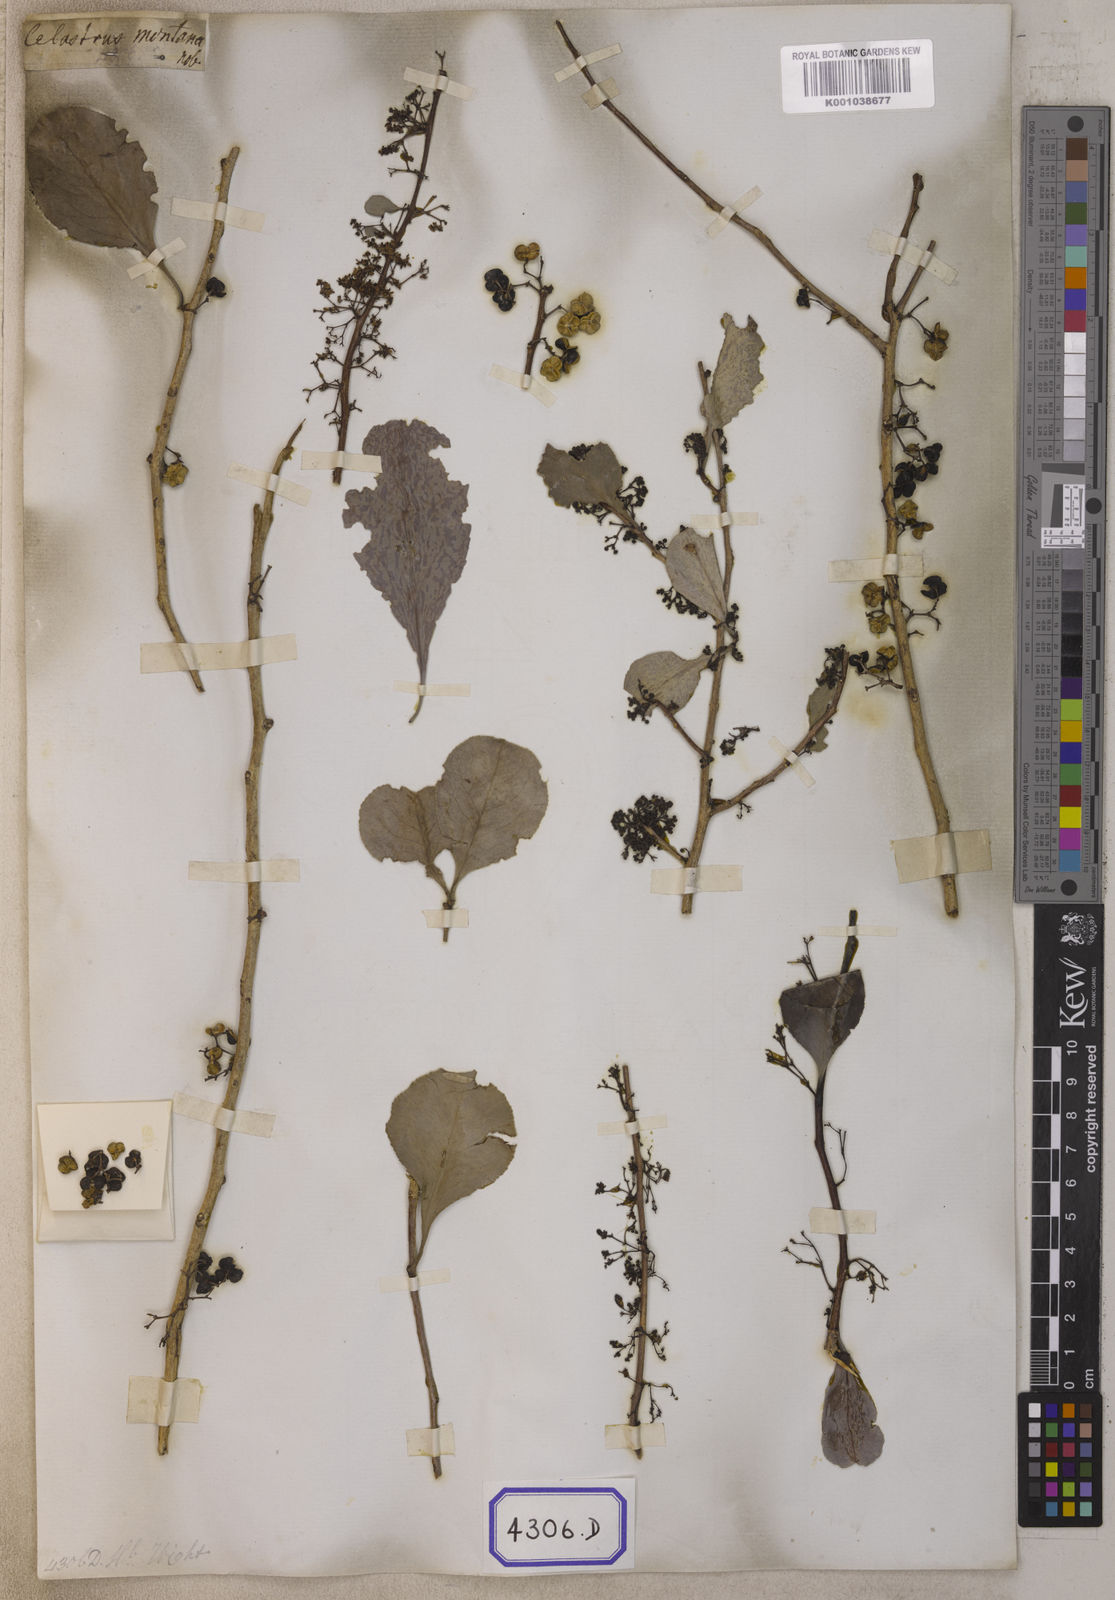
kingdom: Plantae
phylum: Tracheophyta
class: Magnoliopsida
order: Celastrales
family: Celastraceae
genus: Celastrus
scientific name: Celastrus
